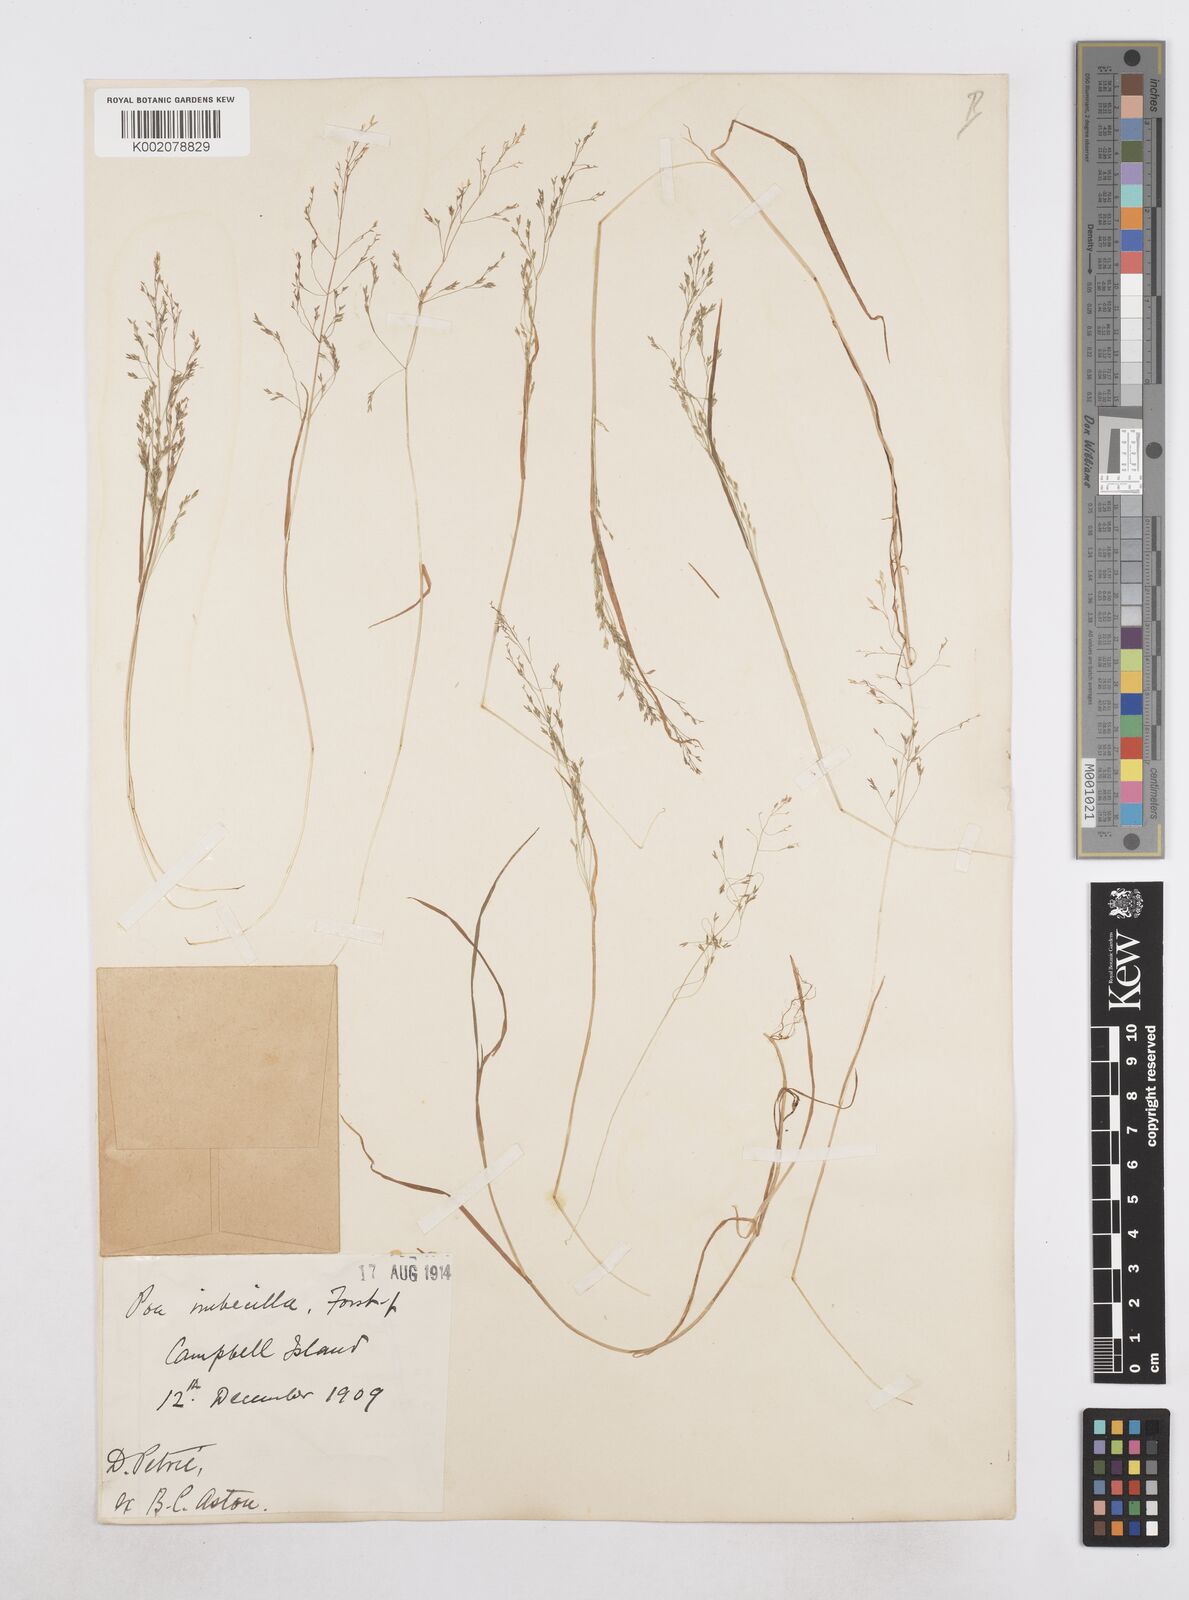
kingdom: Plantae
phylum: Tracheophyta
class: Liliopsida
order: Poales
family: Poaceae
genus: Poa
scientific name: Poa breviglumis
